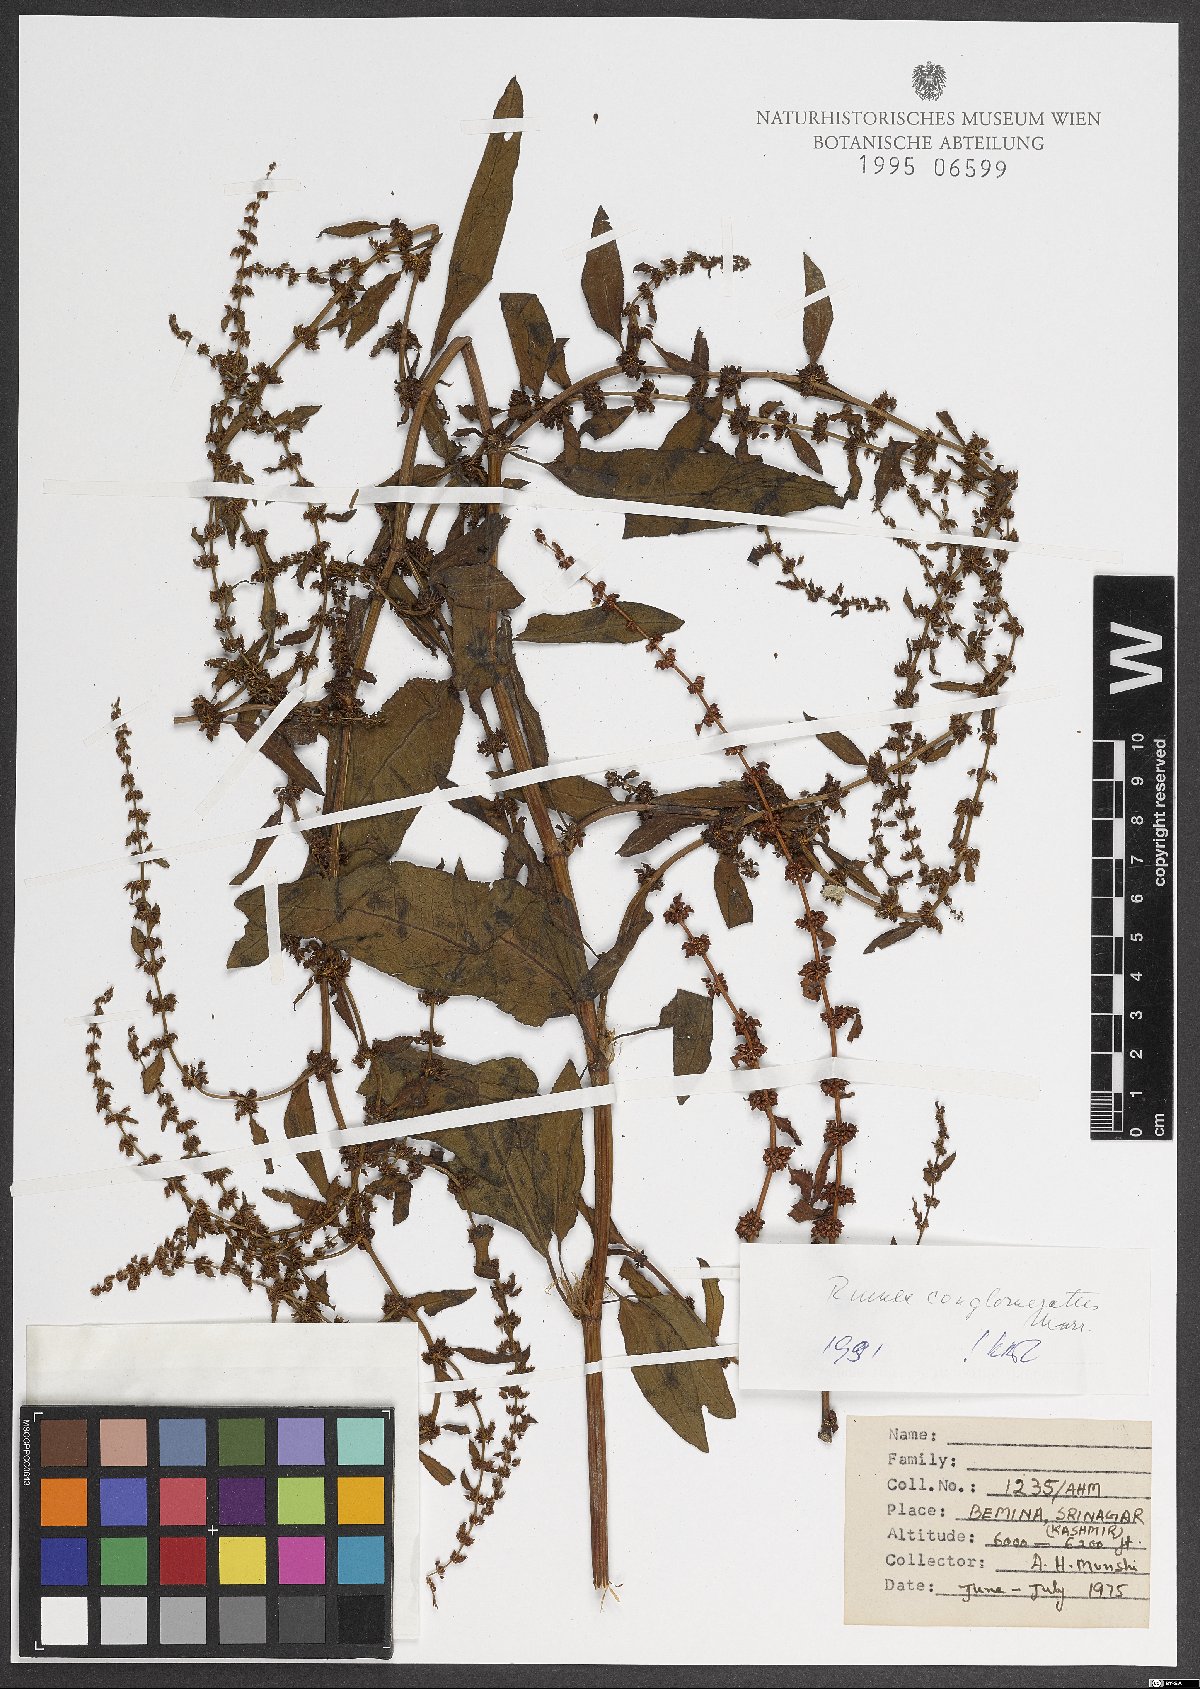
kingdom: Plantae
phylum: Tracheophyta
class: Magnoliopsida
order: Caryophyllales
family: Polygonaceae
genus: Rumex
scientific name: Rumex conglomeratus
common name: Clustered dock
